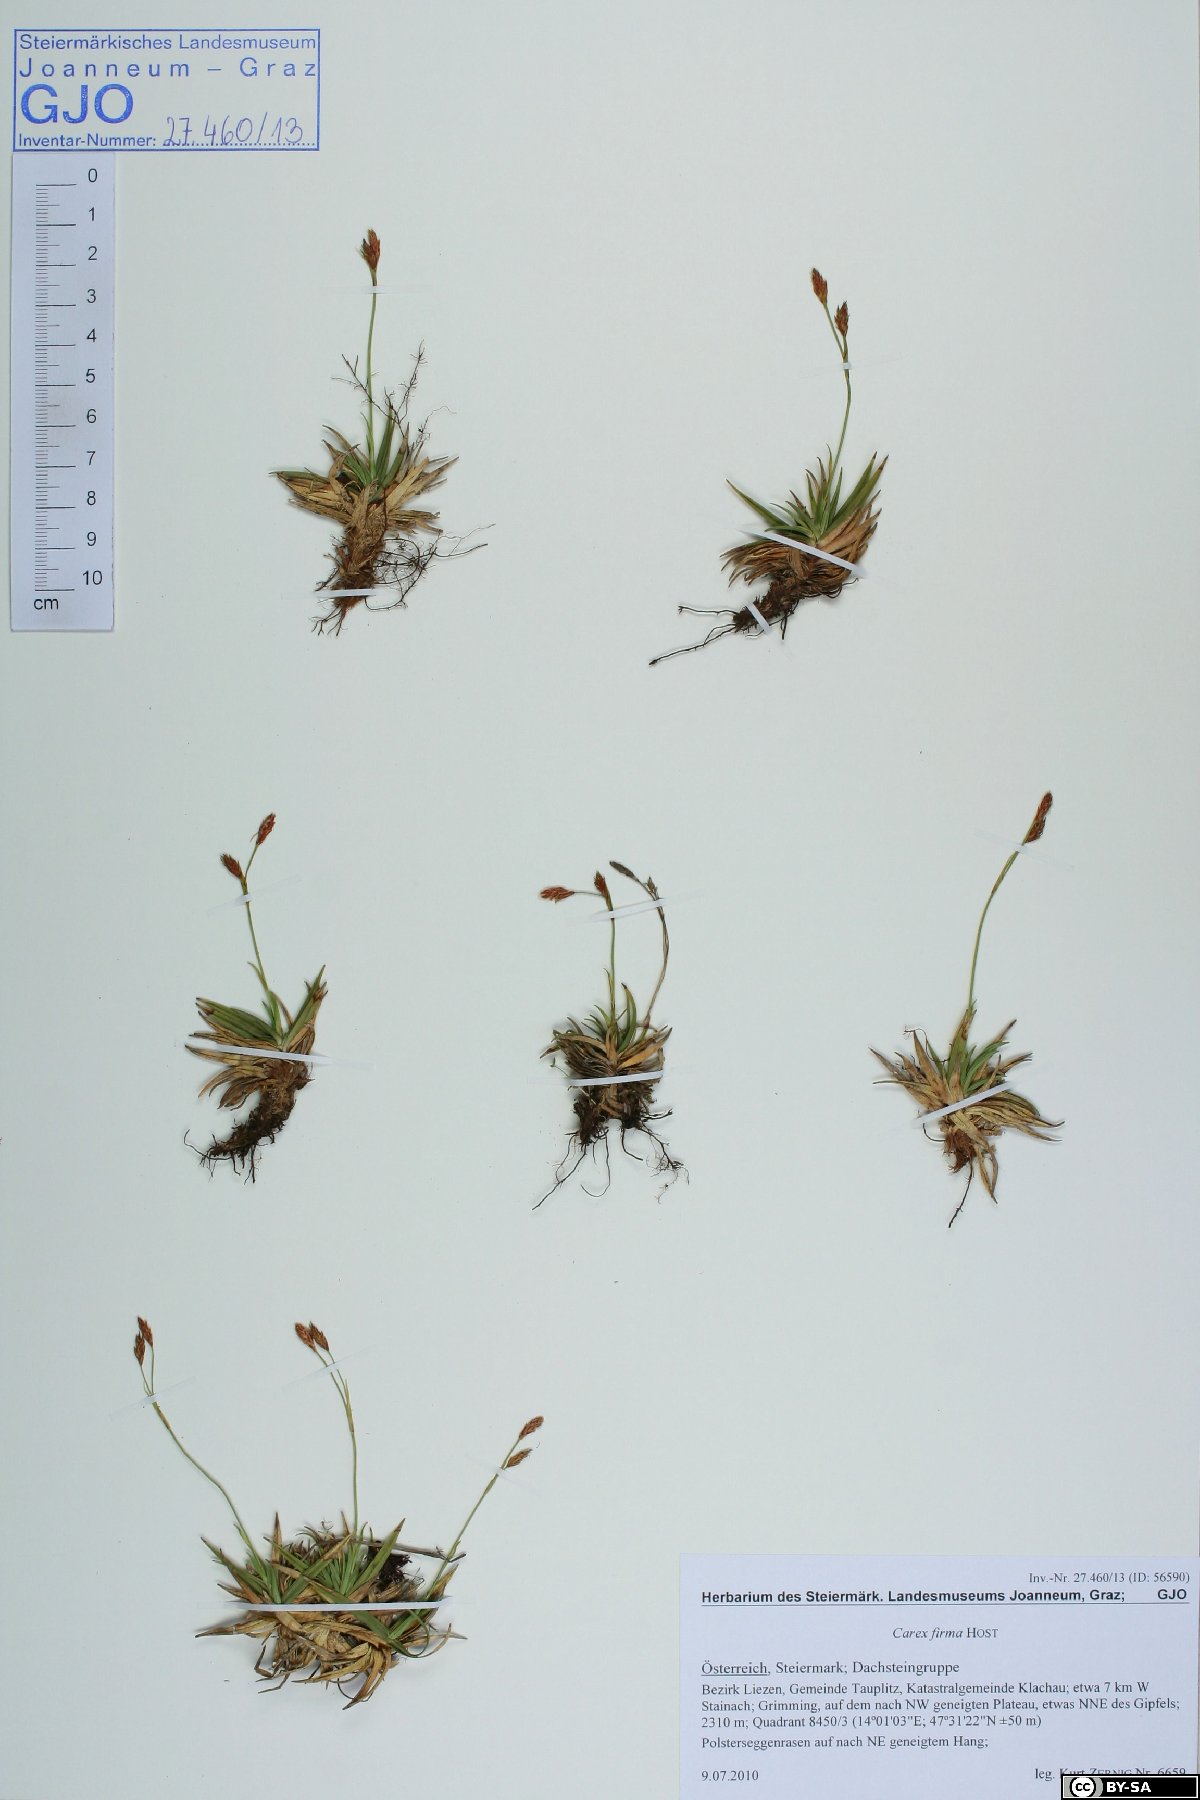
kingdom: Plantae
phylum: Tracheophyta
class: Liliopsida
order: Poales
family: Cyperaceae
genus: Carex
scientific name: Carex firma
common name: Dwarf pillow sedge
